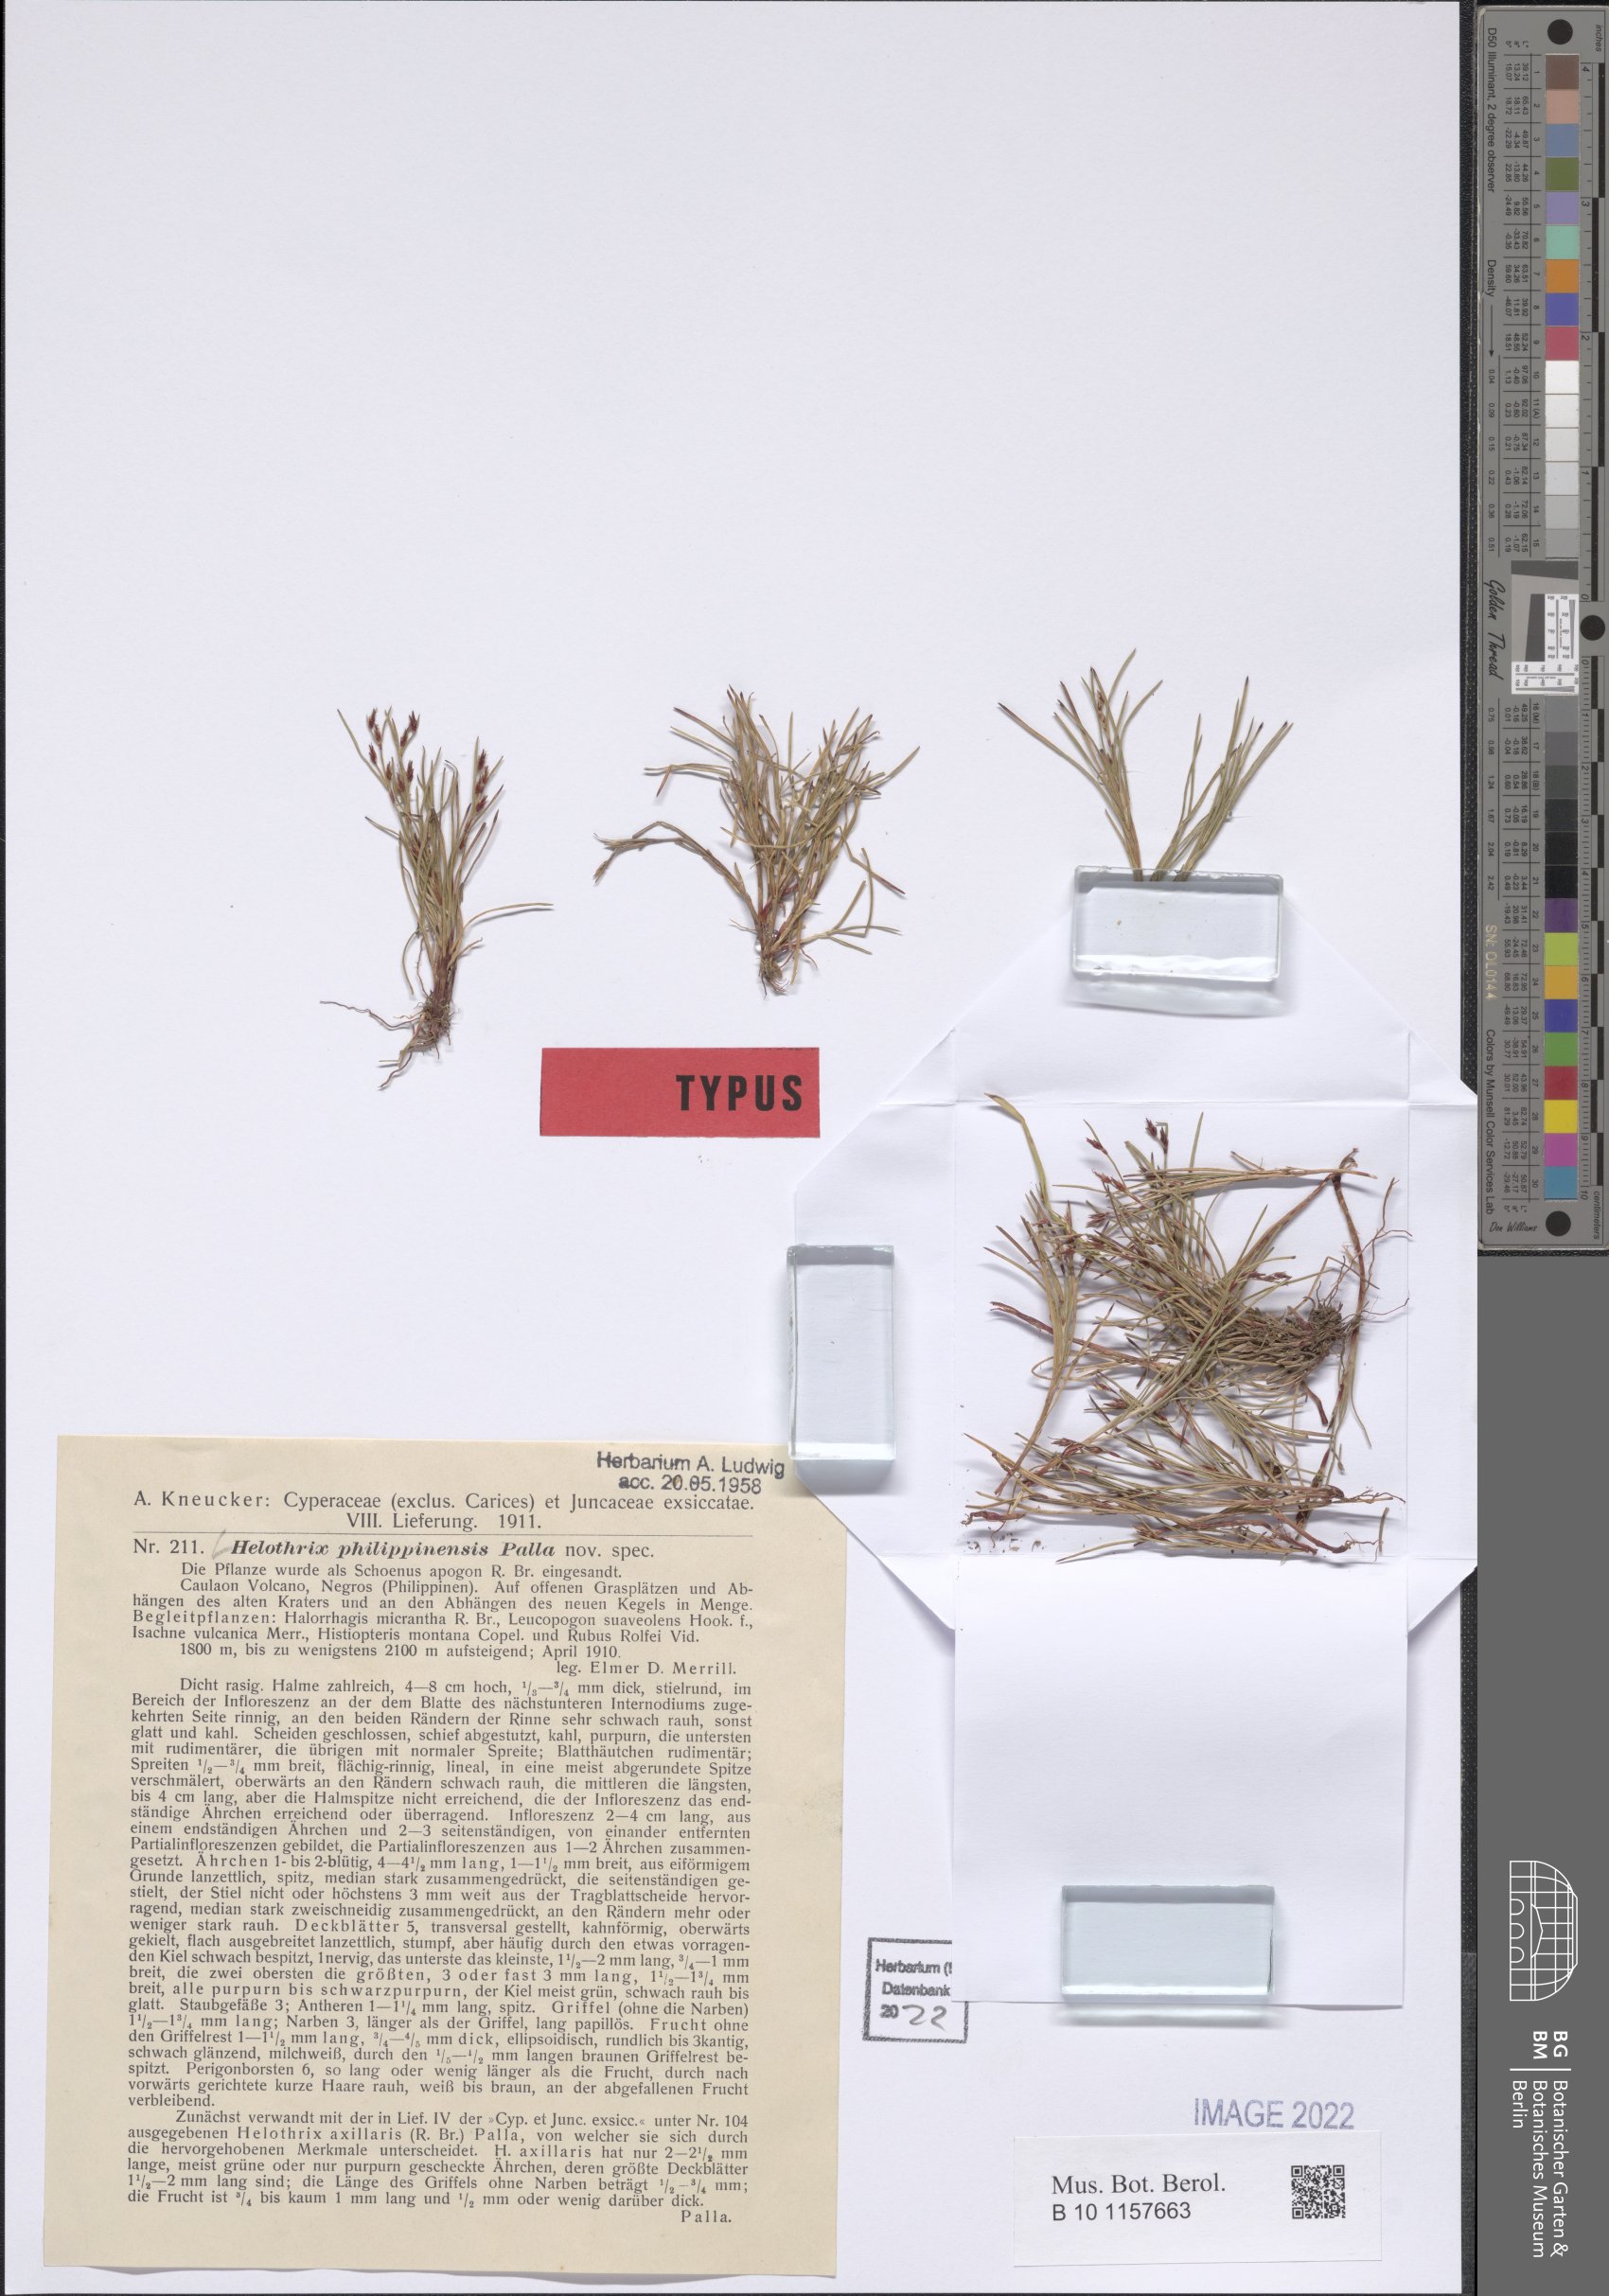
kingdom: Plantae
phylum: Tracheophyta
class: Liliopsida
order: Poales
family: Cyperaceae
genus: Schoenus
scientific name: Schoenus maschalinus
